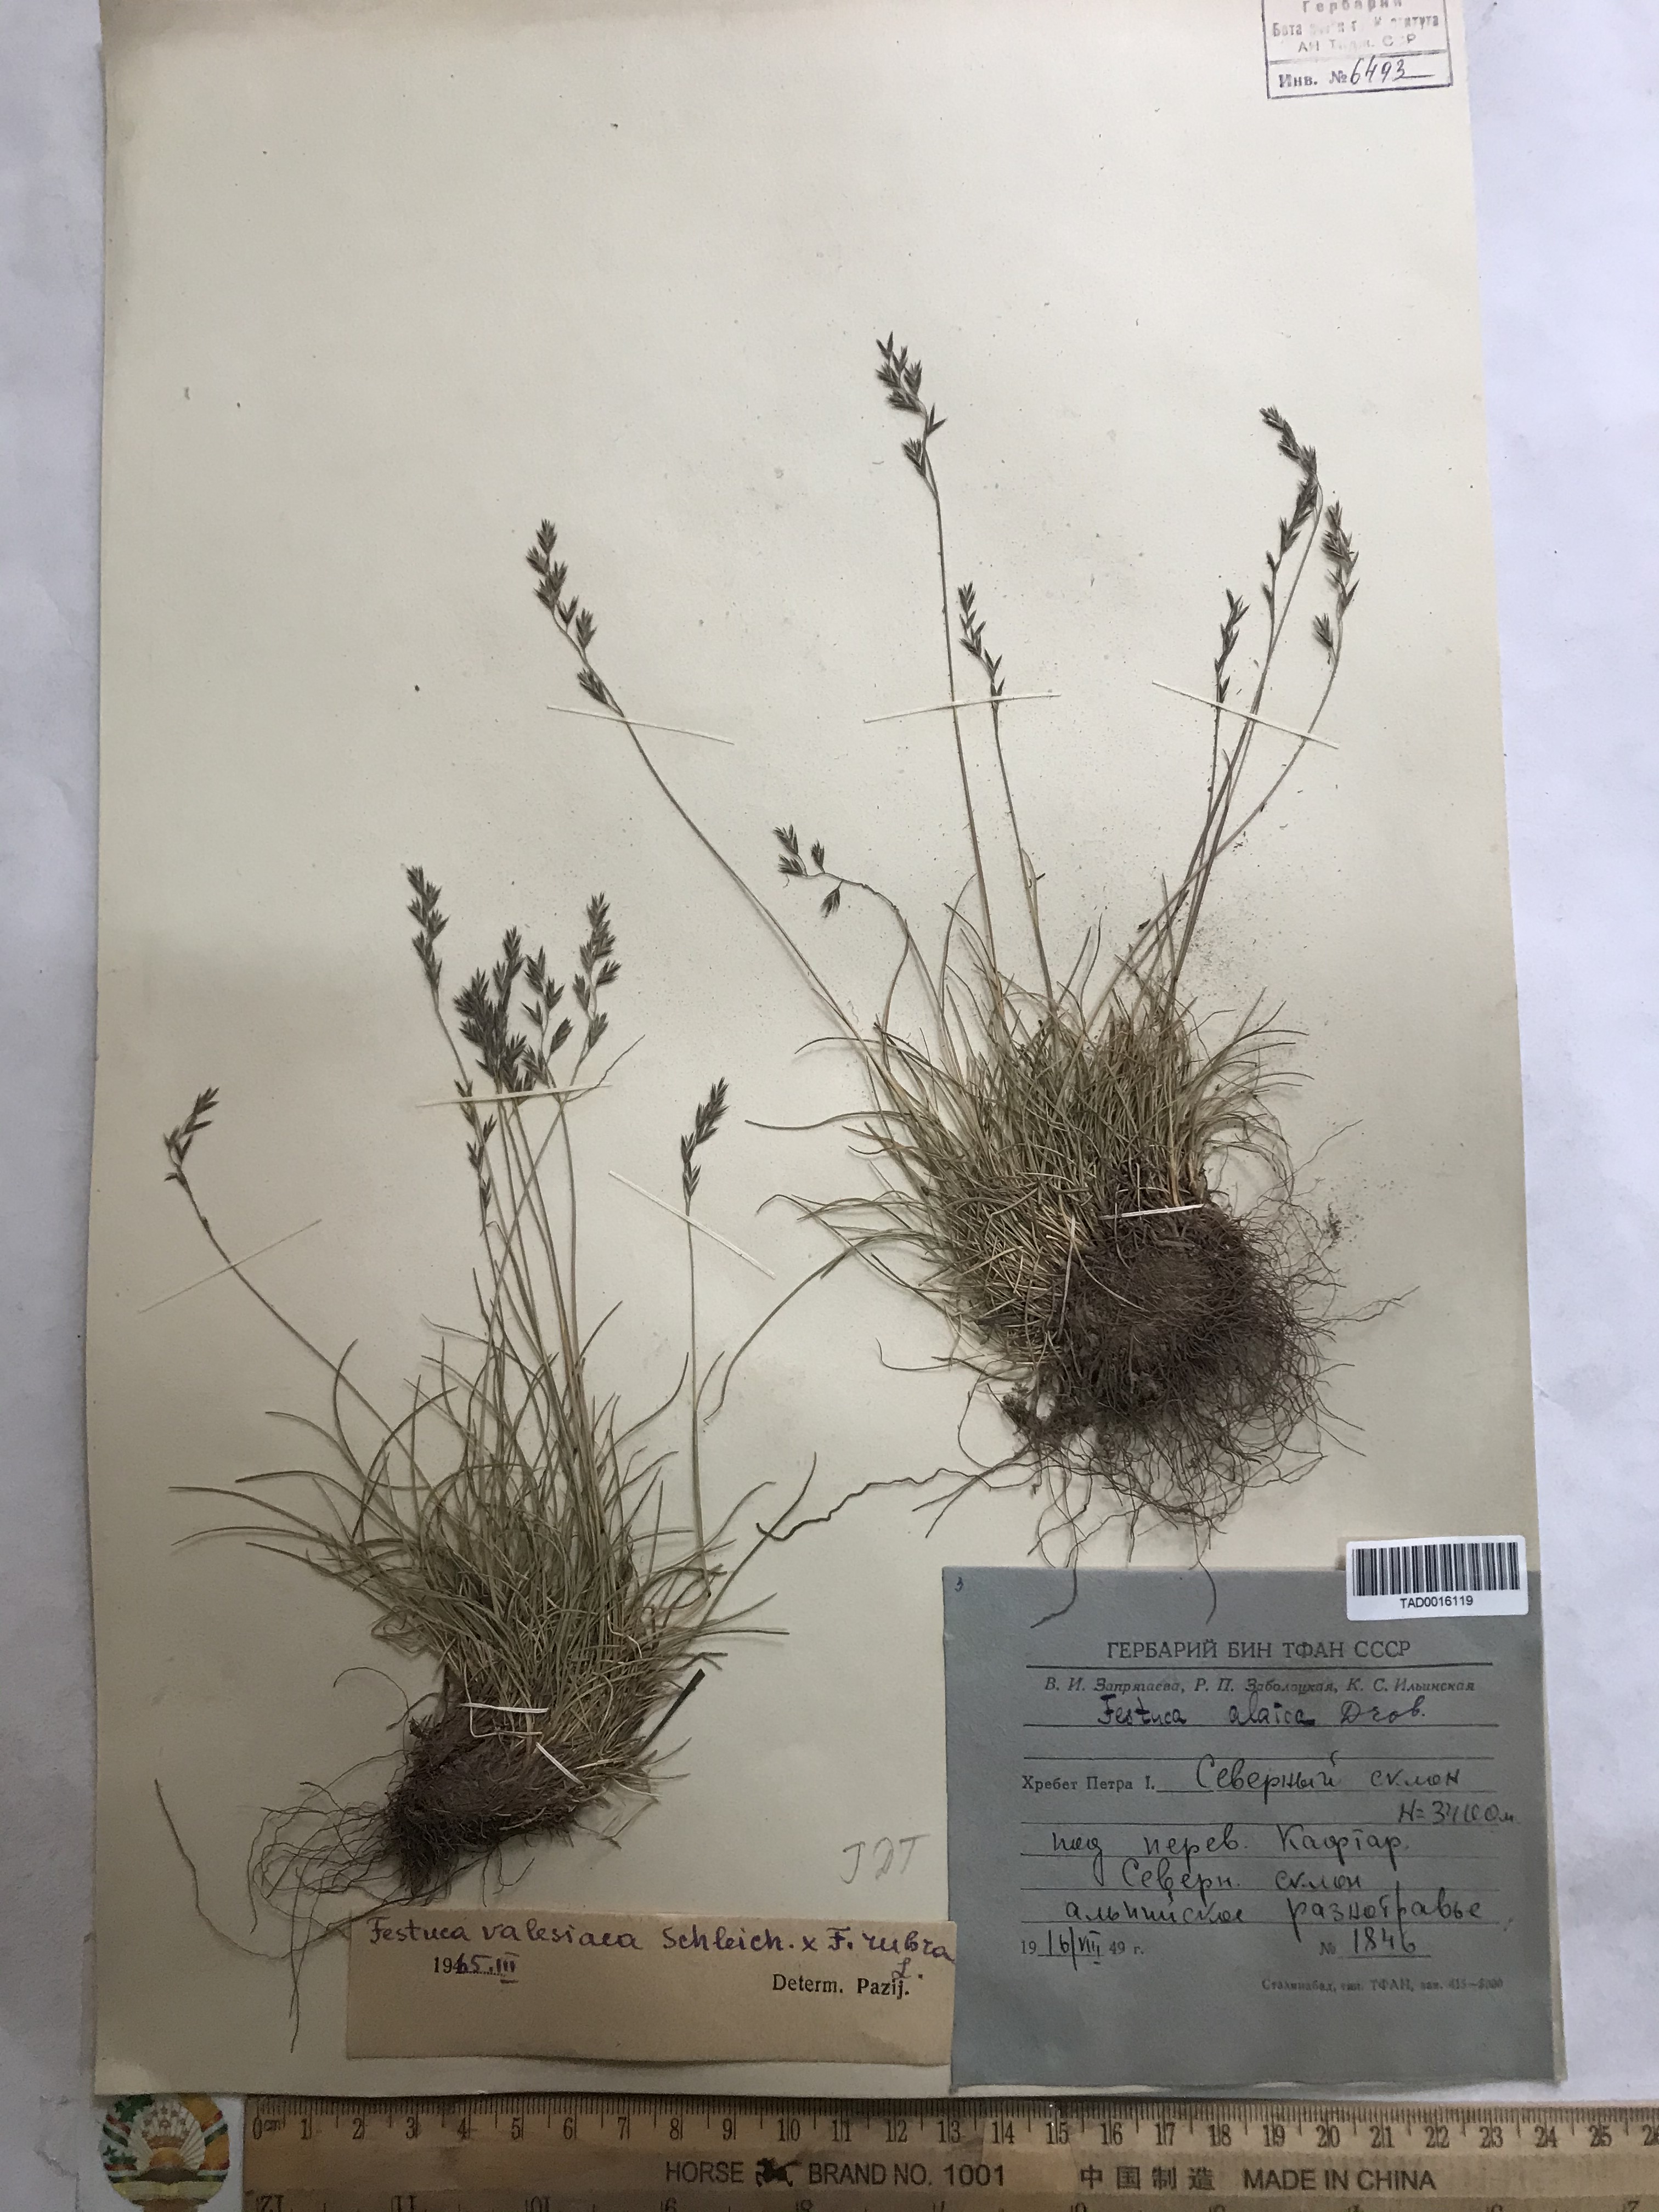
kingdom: Plantae
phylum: Tracheophyta
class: Liliopsida
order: Poales
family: Poaceae
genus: Festuca
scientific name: Festuca valesiaca
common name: Volga fescue
